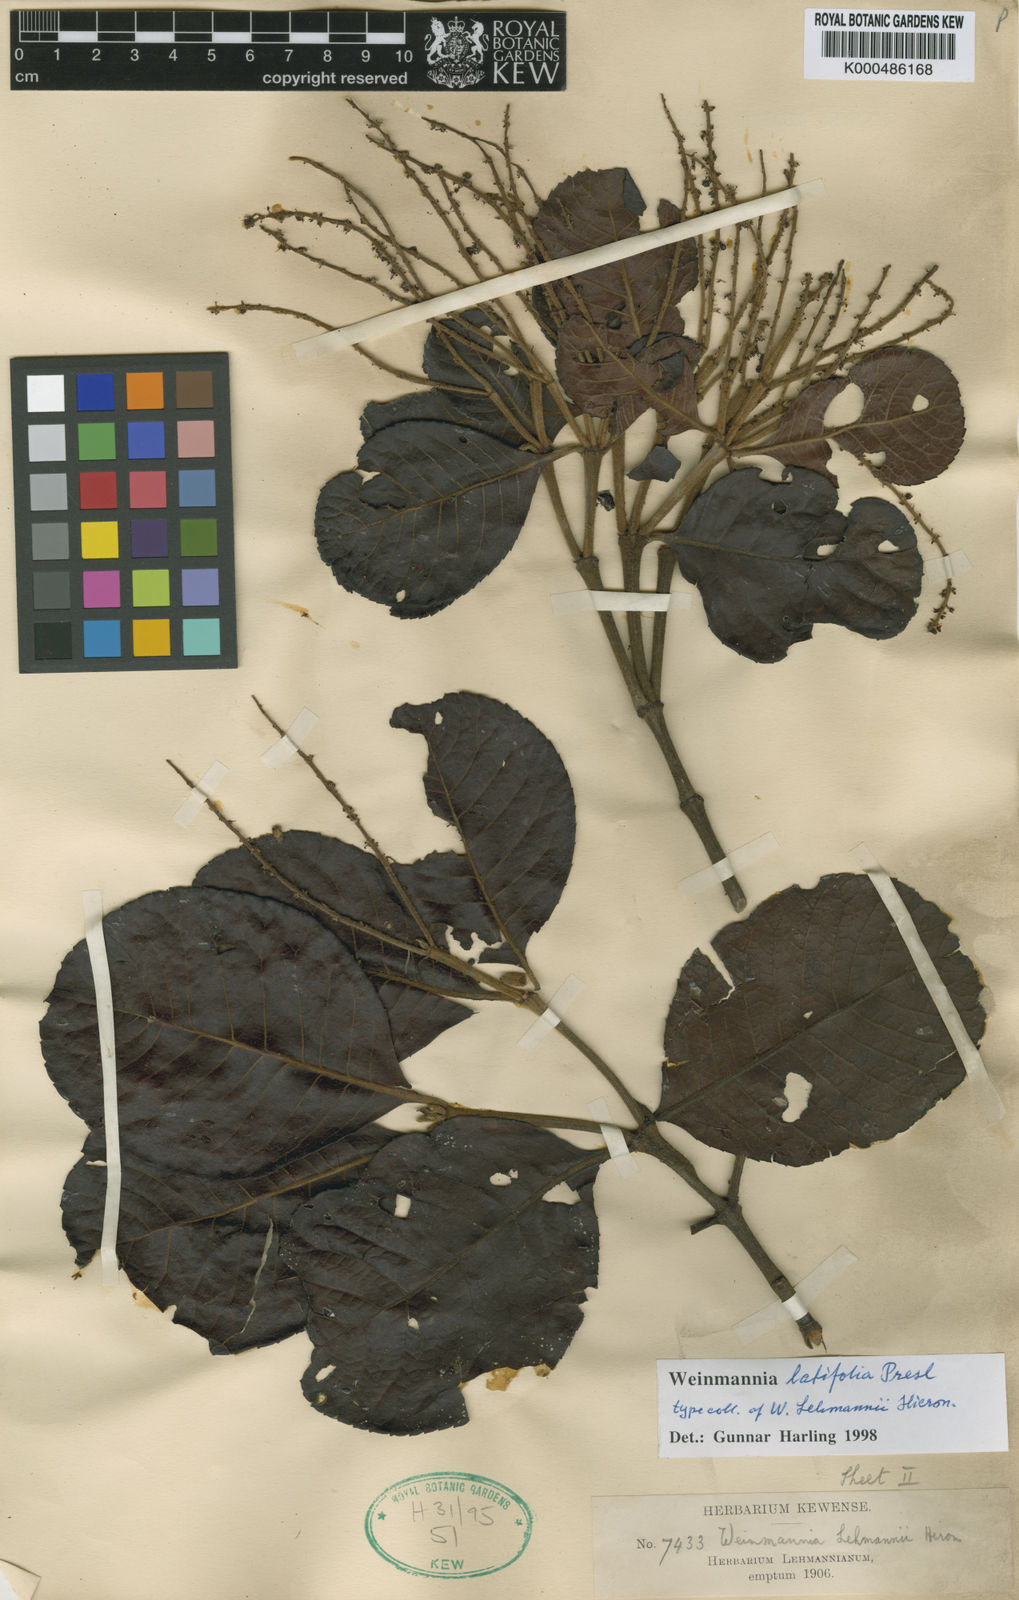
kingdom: Plantae
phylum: Tracheophyta
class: Magnoliopsida
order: Oxalidales
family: Cunoniaceae
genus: Weinmannia
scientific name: Weinmannia latifolia
